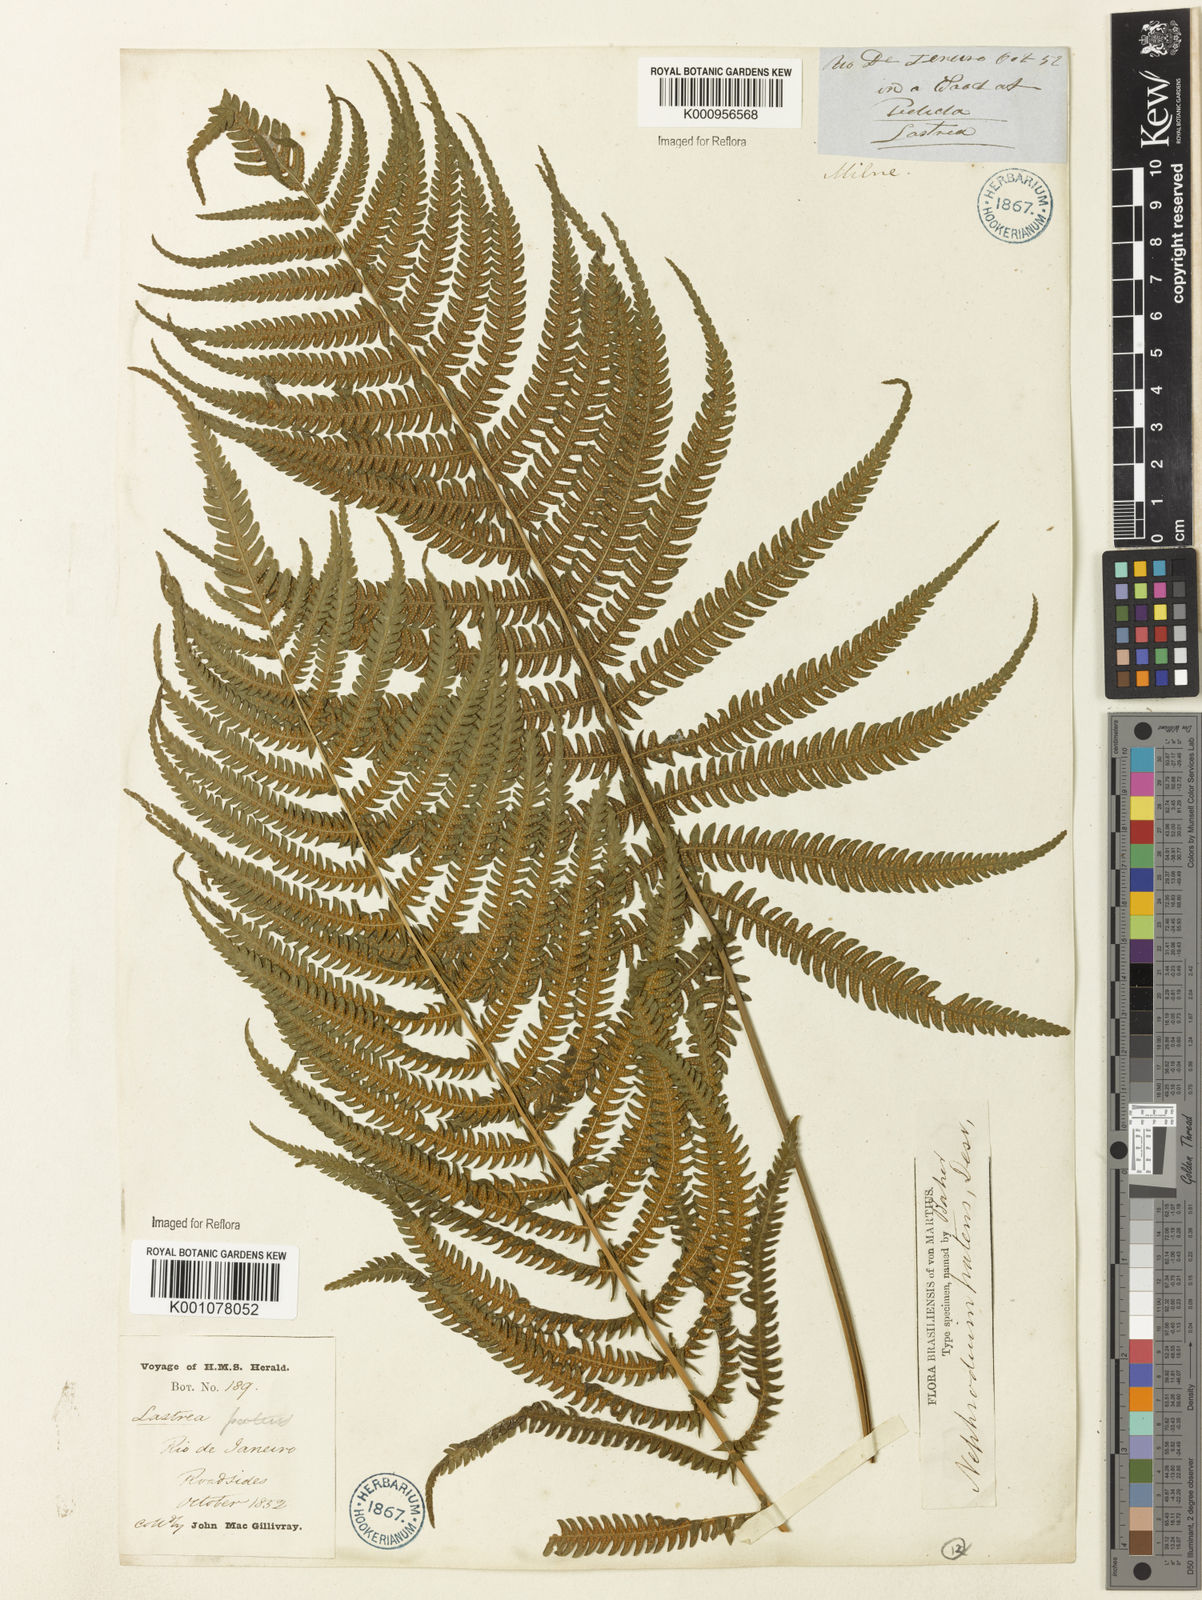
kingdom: Plantae
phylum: Tracheophyta
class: Polypodiopsida
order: Polypodiales
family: Thelypteridaceae
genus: Pelazoneuron
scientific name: Pelazoneuron patens
